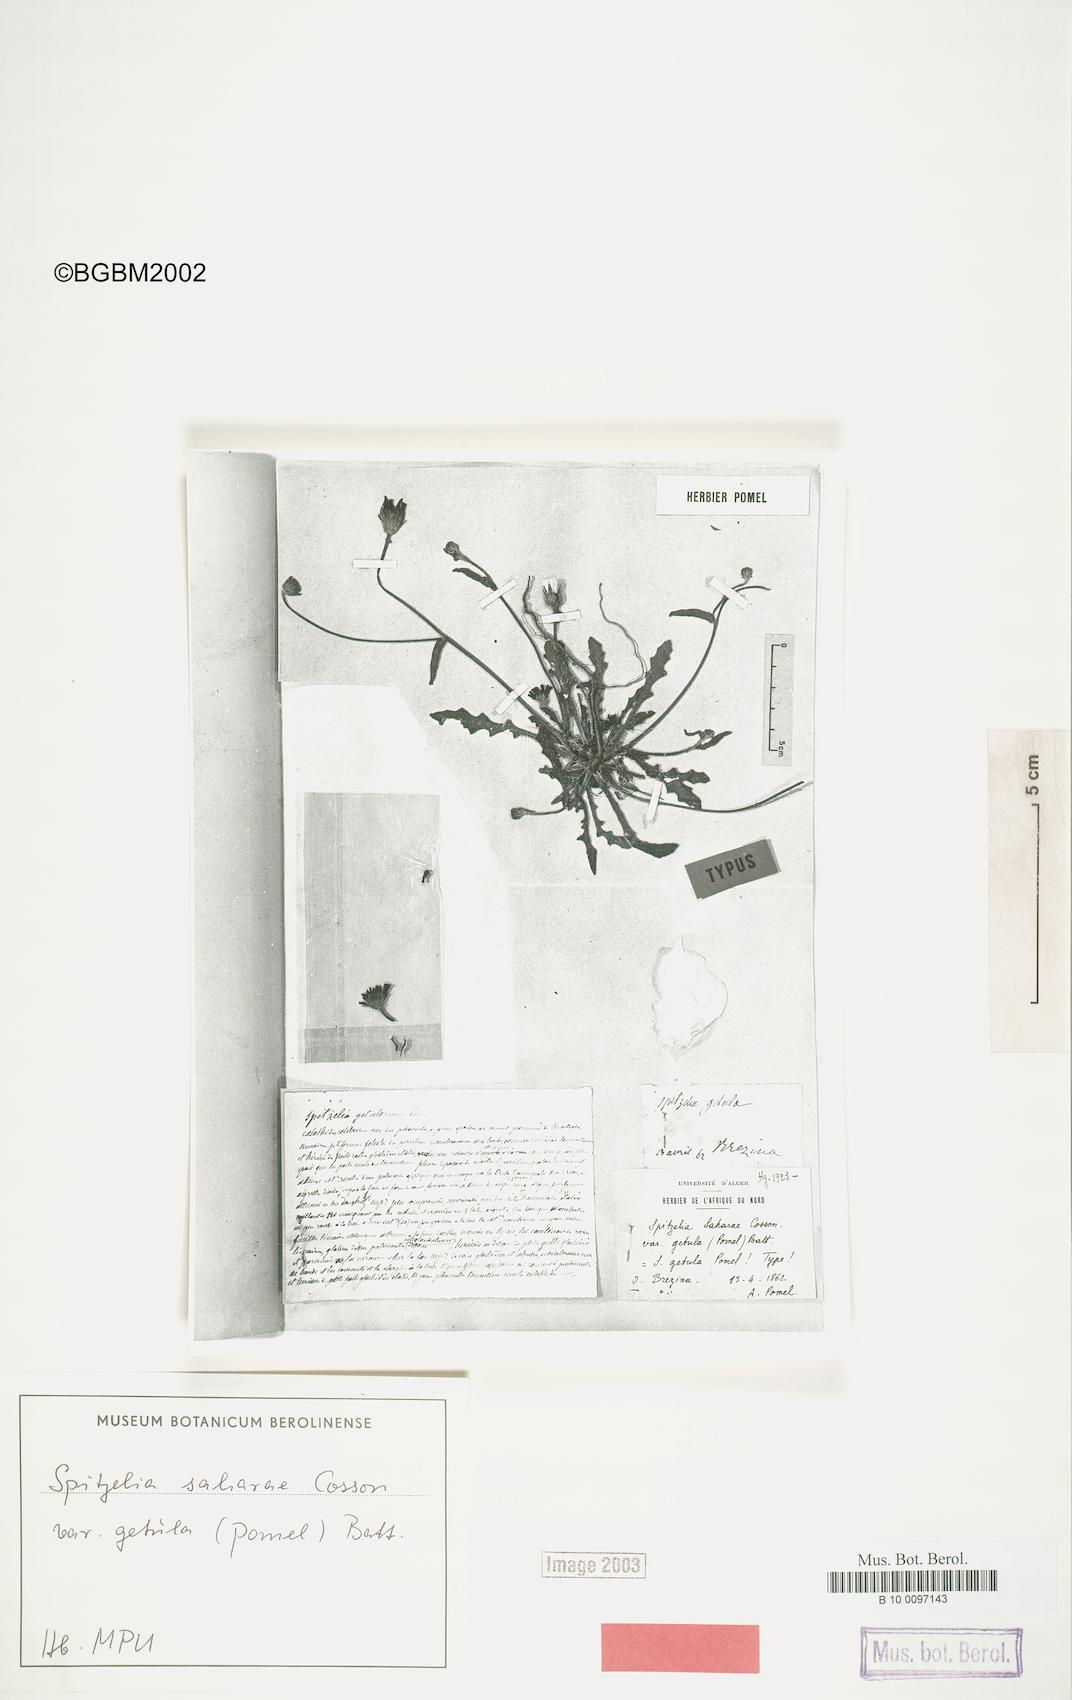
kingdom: Plantae
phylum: Tracheophyta
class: Magnoliopsida
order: Asterales
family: Asteraceae
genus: Picris
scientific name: Picris asplenioides
